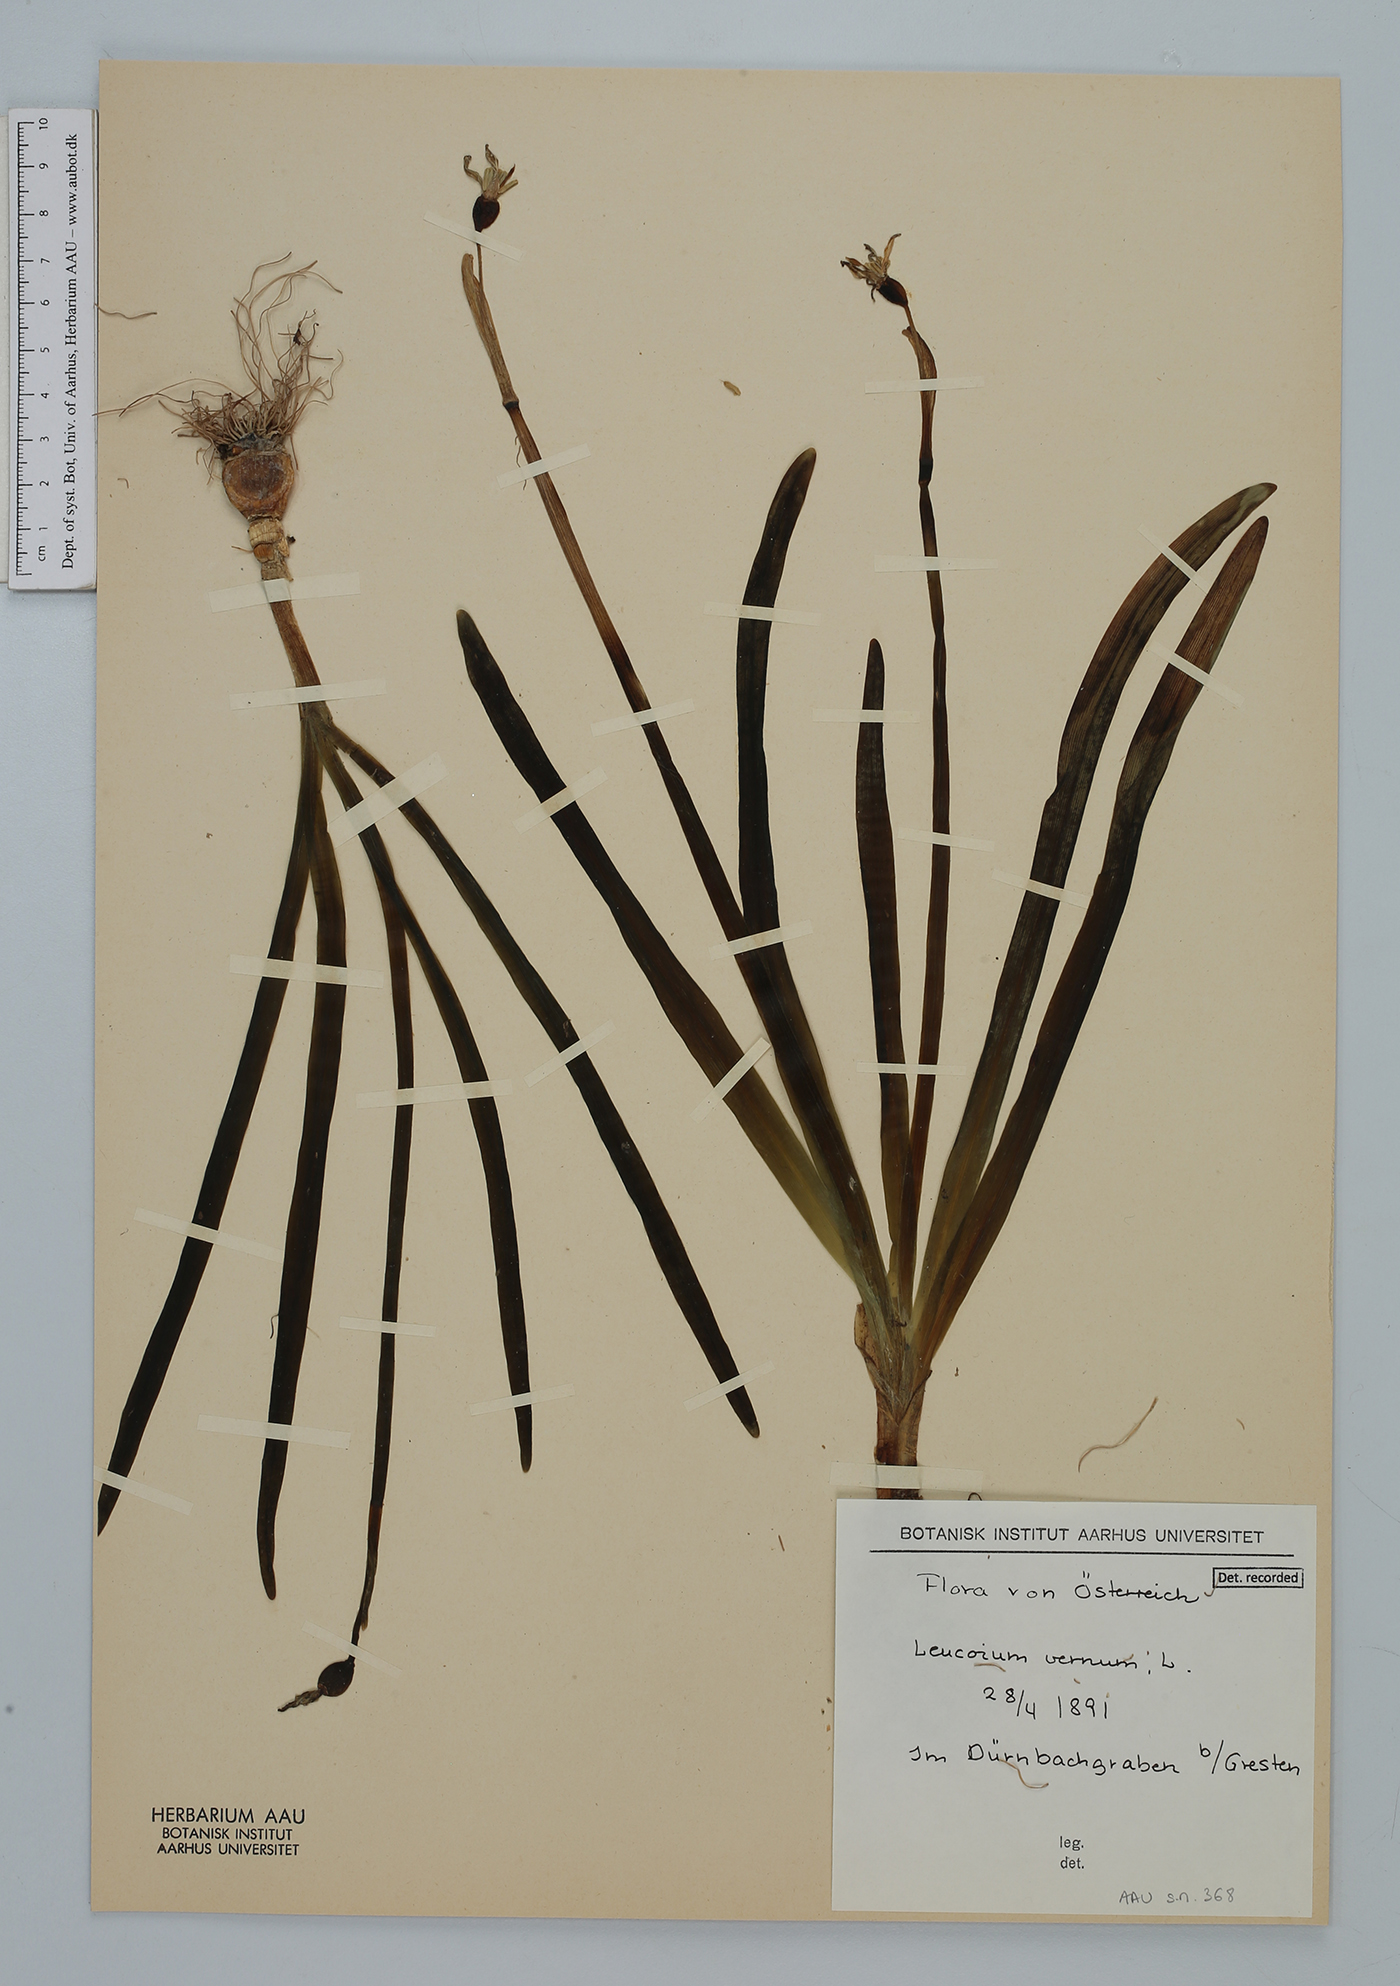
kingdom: Plantae
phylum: Tracheophyta
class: Liliopsida
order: Asparagales
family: Amaryllidaceae
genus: Leucojum
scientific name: Leucojum vernum
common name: Spring snowflake
